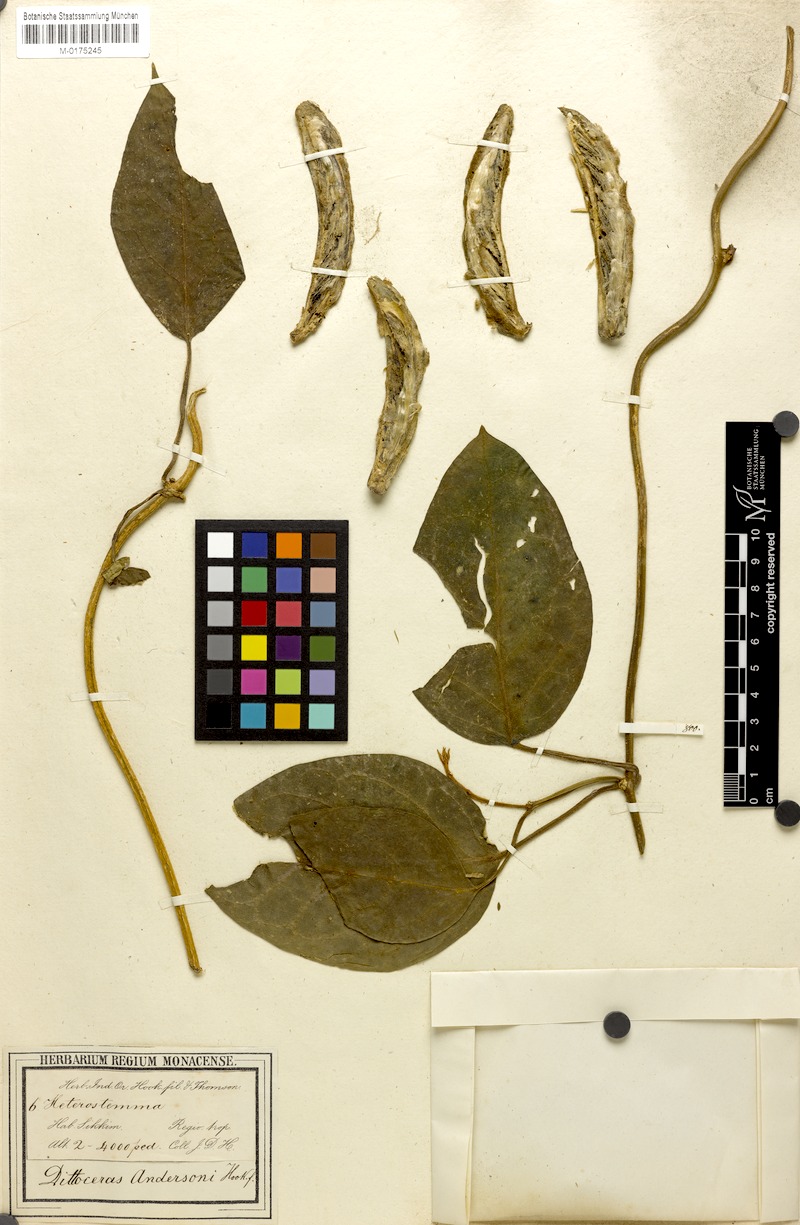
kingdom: Plantae
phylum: Tracheophyta
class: Magnoliopsida
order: Gentianales
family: Apocynaceae
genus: Heterostemma
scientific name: Heterostemma andersonii
